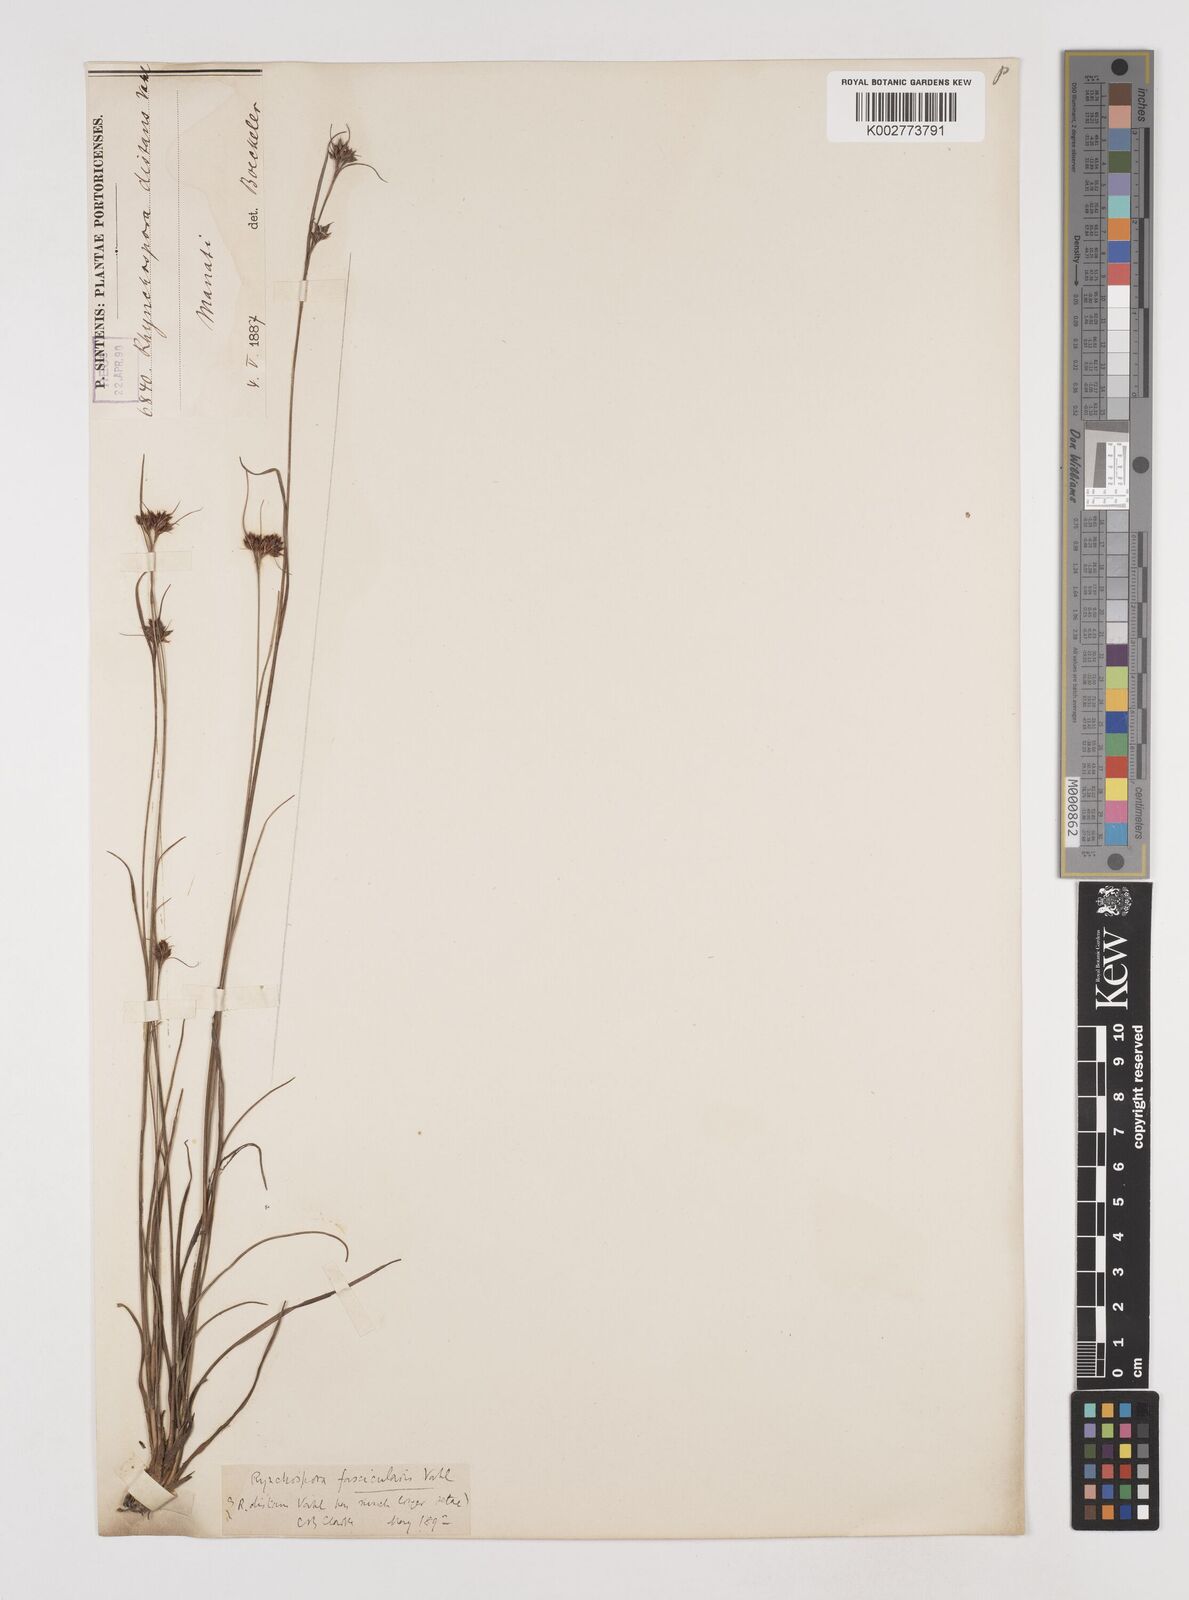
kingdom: Plantae
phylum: Tracheophyta
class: Liliopsida
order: Poales
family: Cyperaceae
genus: Rhynchospora
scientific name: Rhynchospora fascicularis
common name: Fascicled beak sedge
